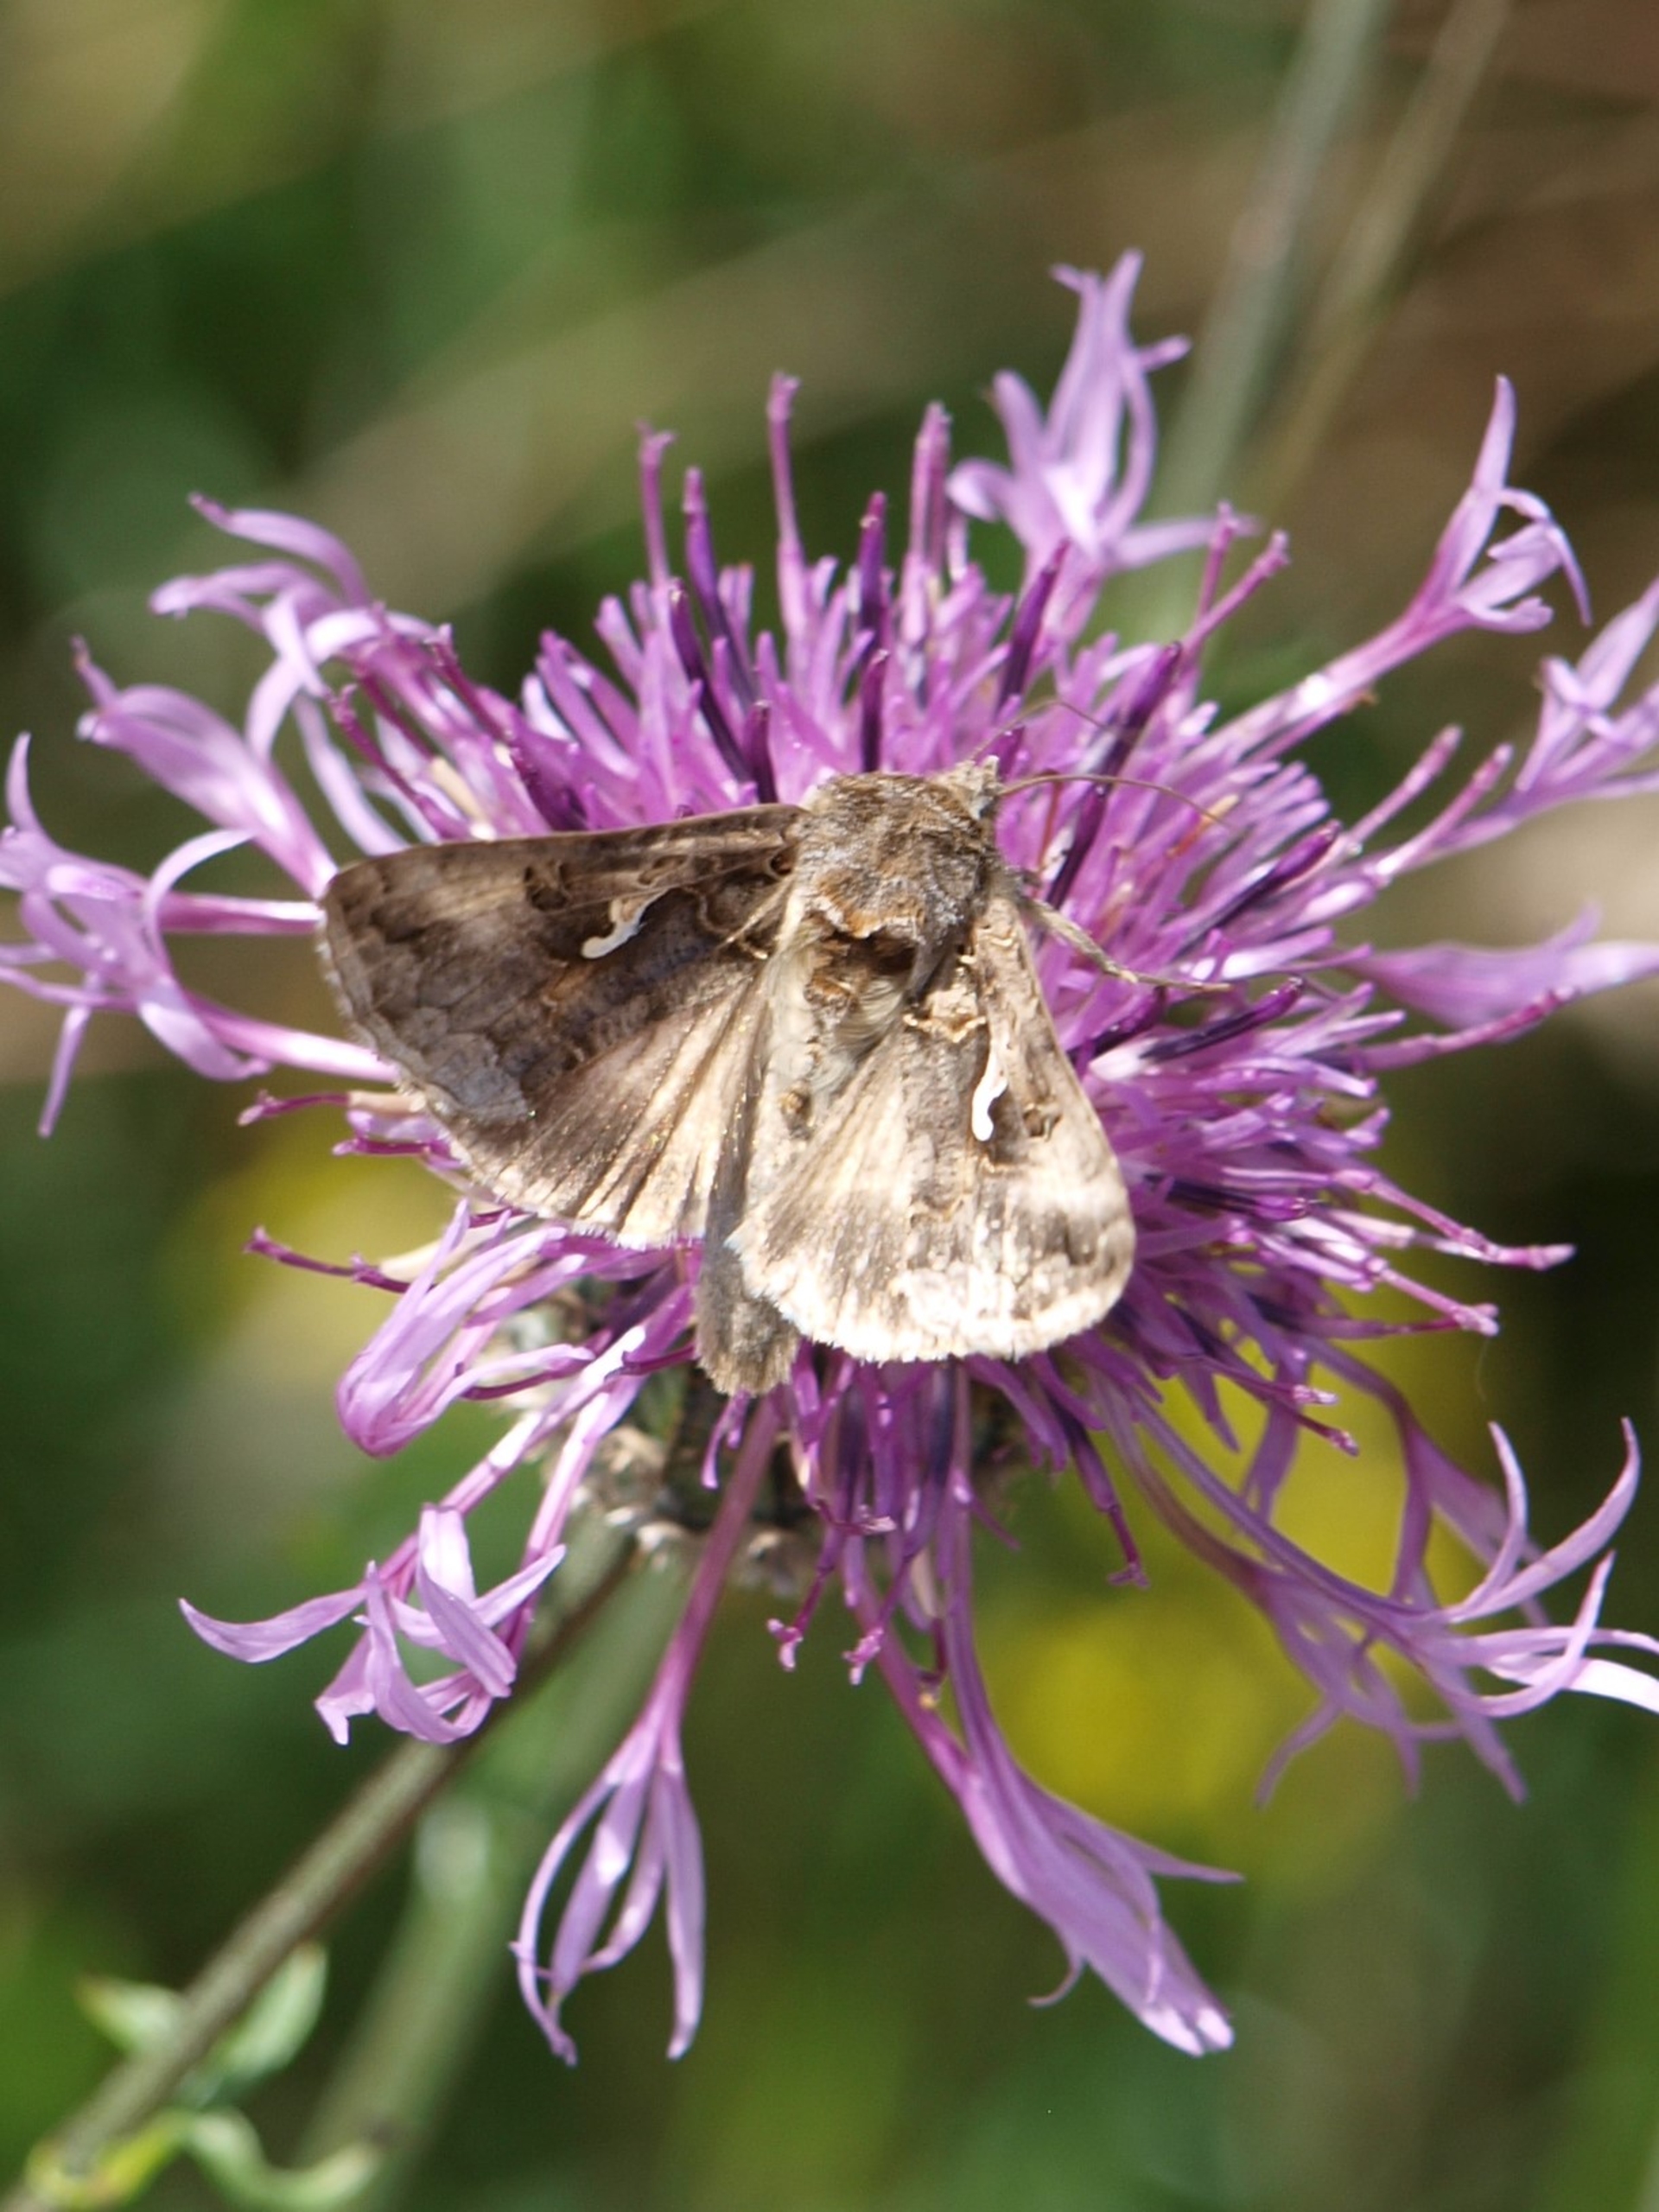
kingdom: Animalia
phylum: Arthropoda
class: Insecta
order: Lepidoptera
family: Noctuidae
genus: Autographa
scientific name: Autographa gamma
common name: Gammaugle
